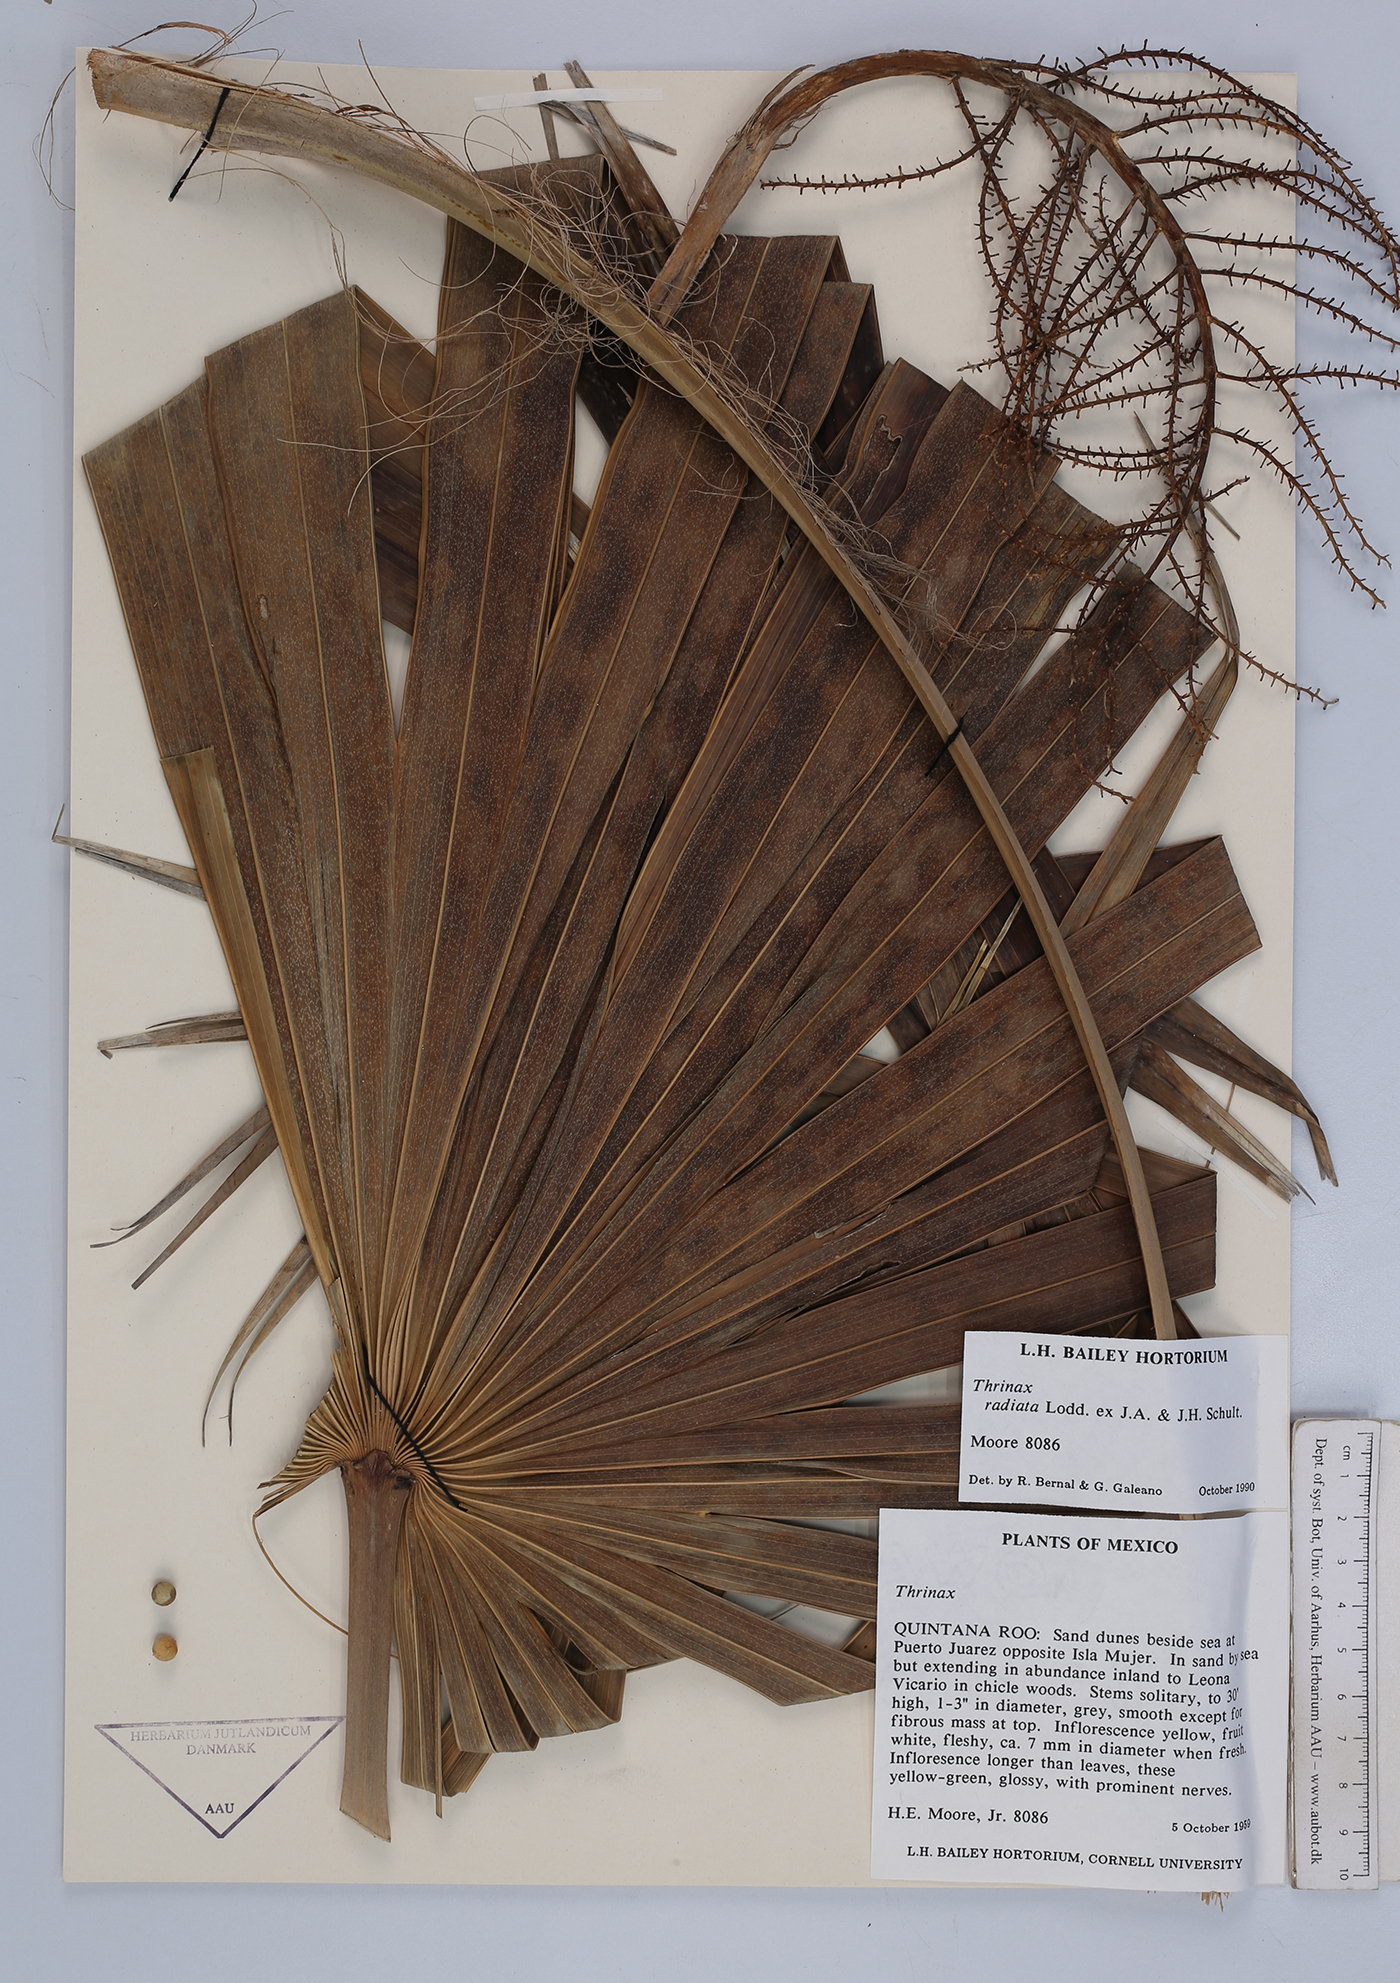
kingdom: Plantae
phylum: Tracheophyta
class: Liliopsida
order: Arecales
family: Arecaceae
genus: Thrinax
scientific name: Thrinax radiata
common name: Florida thatch
